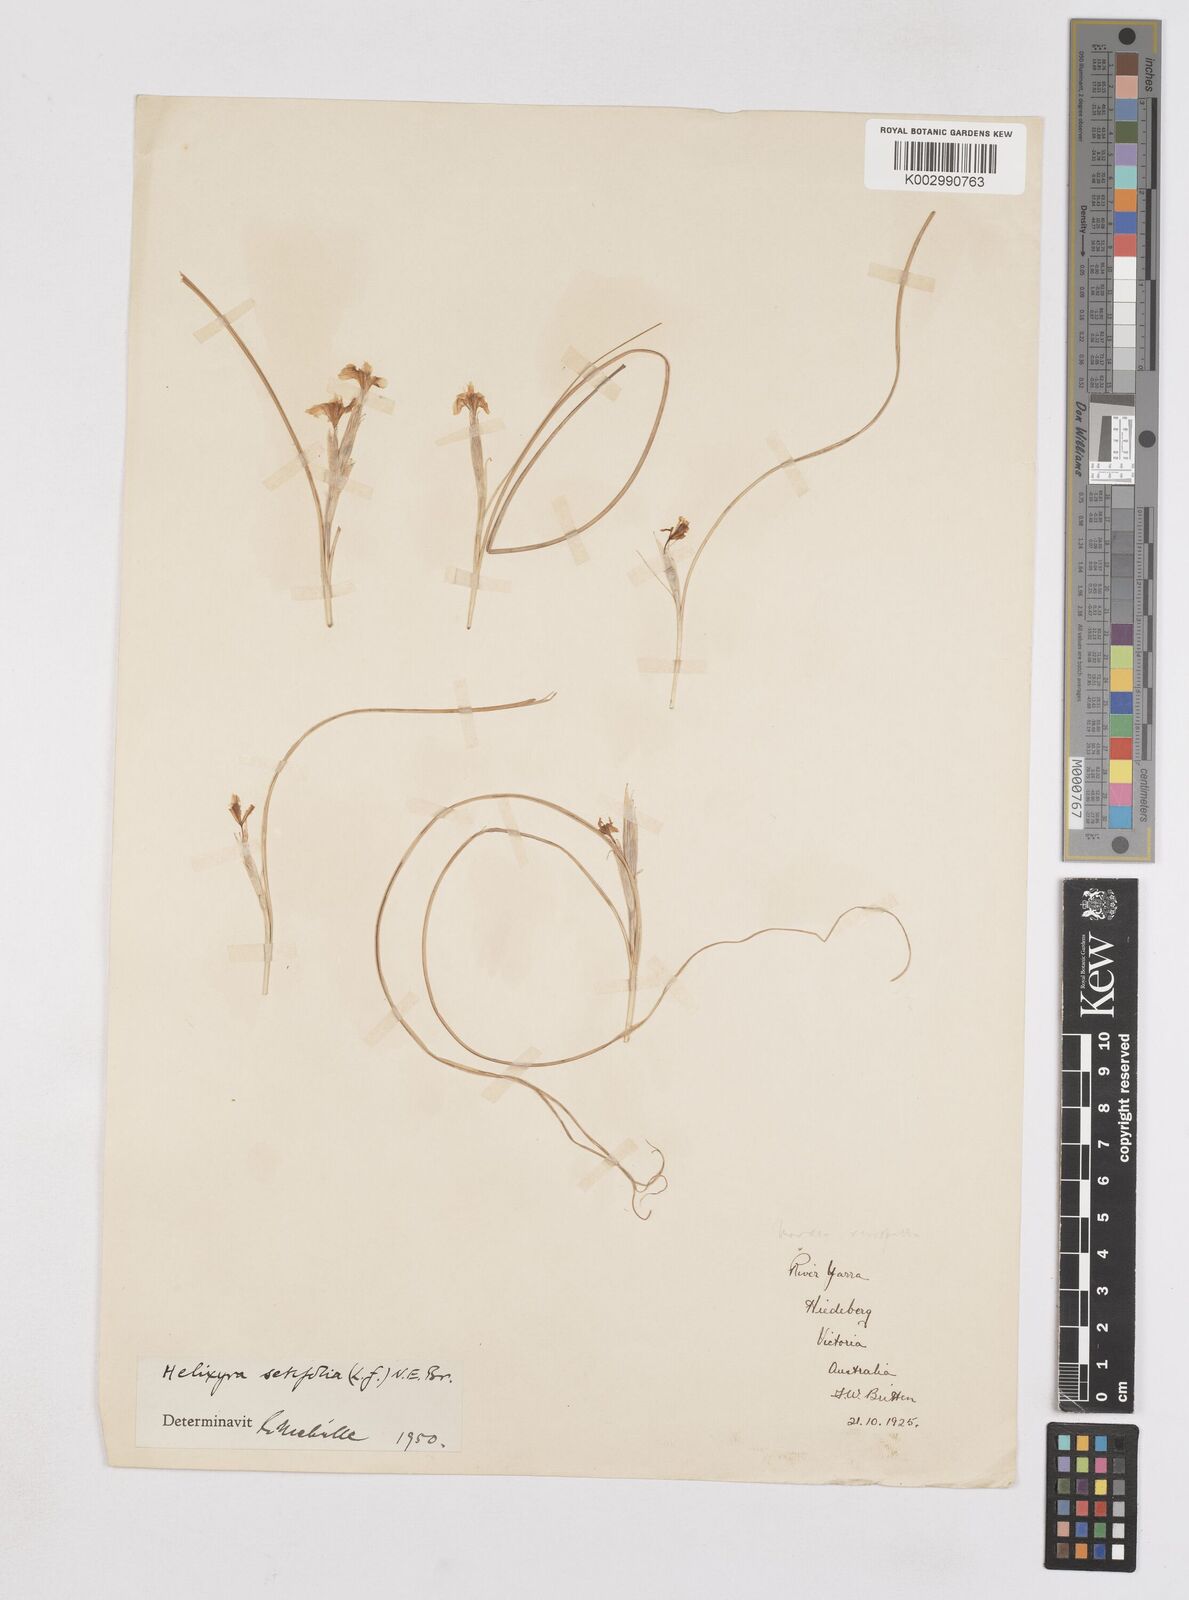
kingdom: Plantae
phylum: Tracheophyta
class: Liliopsida
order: Asparagales
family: Iridaceae
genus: Moraea
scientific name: Moraea setifolia
